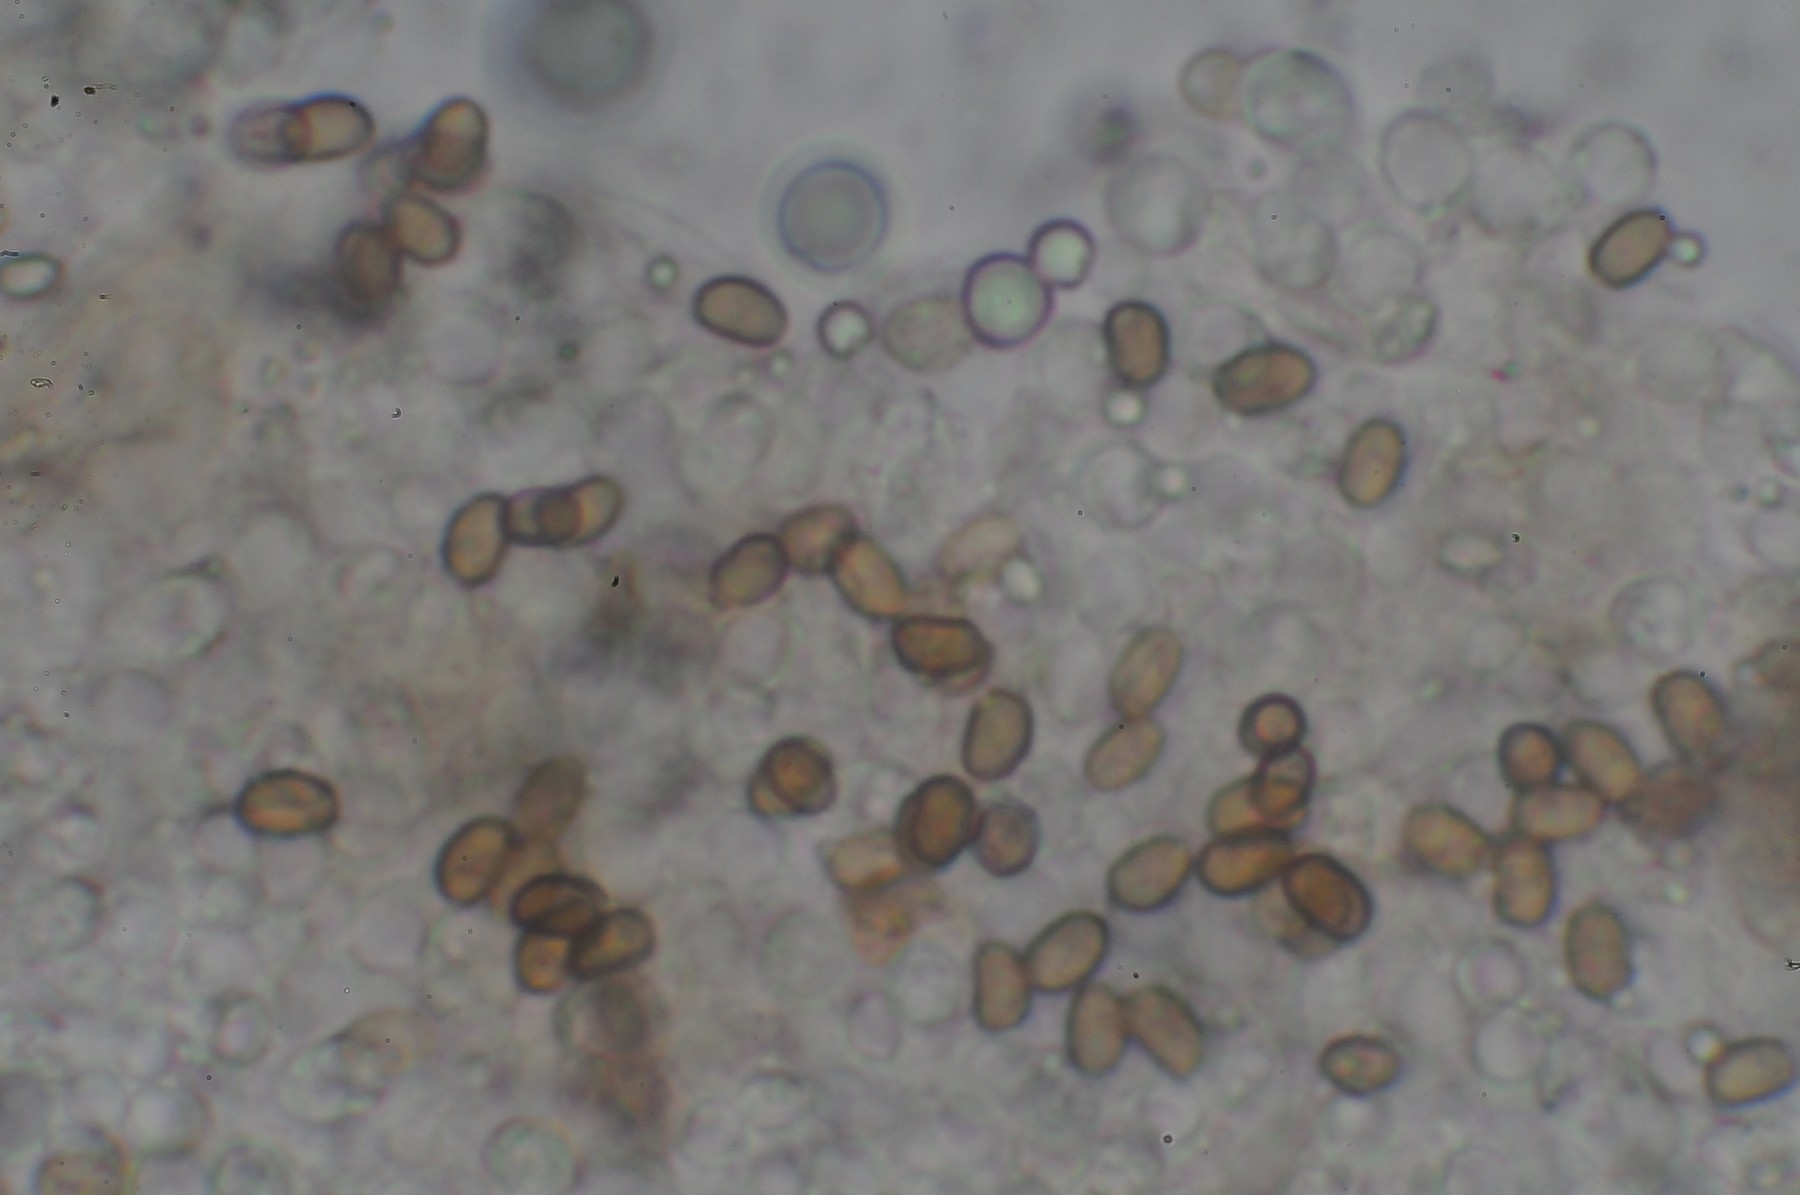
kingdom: Fungi
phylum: Basidiomycota
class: Agaricomycetes
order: Agaricales
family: Psathyrellaceae
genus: Psathyrella
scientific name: Psathyrella piluliformis
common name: lysstokket mørkhat
